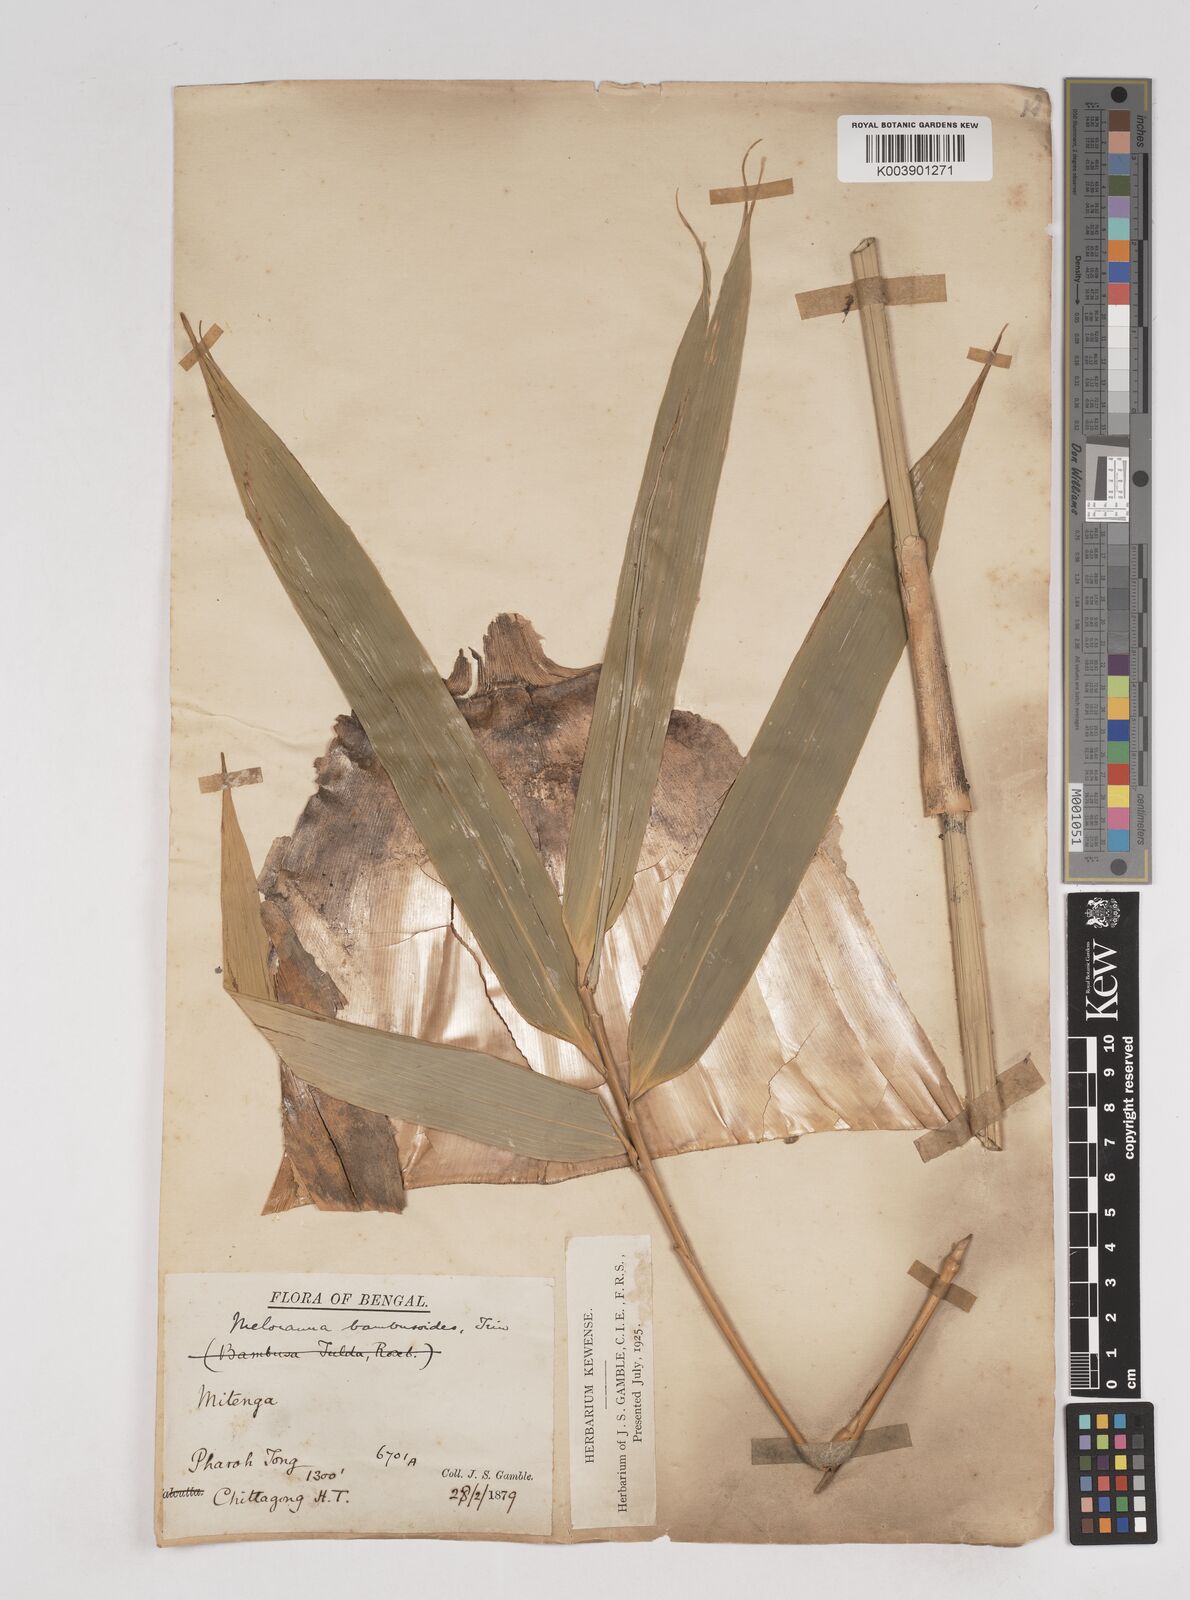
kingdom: Plantae
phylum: Tracheophyta
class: Liliopsida
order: Poales
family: Poaceae
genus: Melocanna
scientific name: Melocanna baccifera
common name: Berry bamboo
